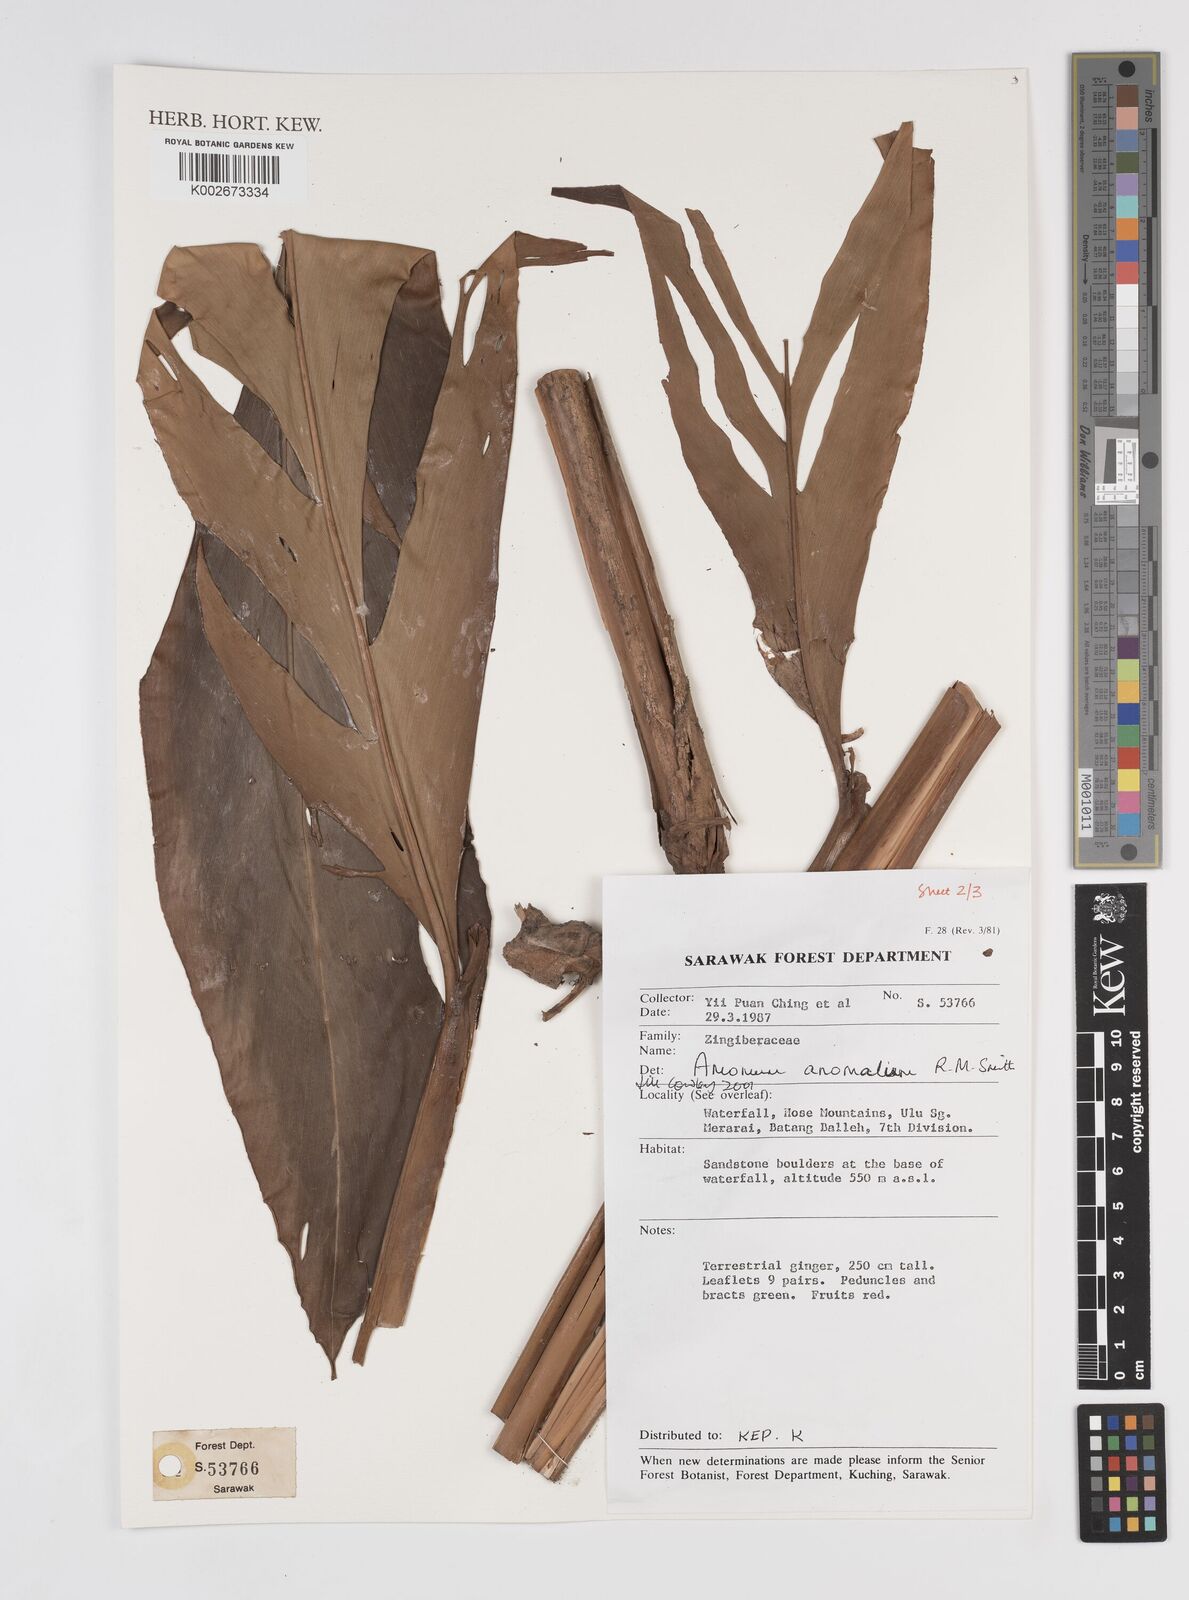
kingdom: Plantae
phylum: Tracheophyta
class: Liliopsida
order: Zingiberales
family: Zingiberaceae
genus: Sulettaria
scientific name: Sulettaria anomala
